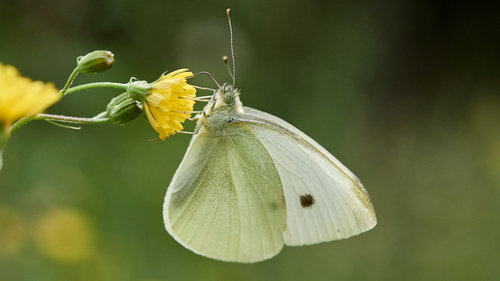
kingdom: Animalia
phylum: Arthropoda
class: Insecta
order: Lepidoptera
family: Pieridae
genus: Pieris
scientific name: Pieris rapae
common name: Small white
